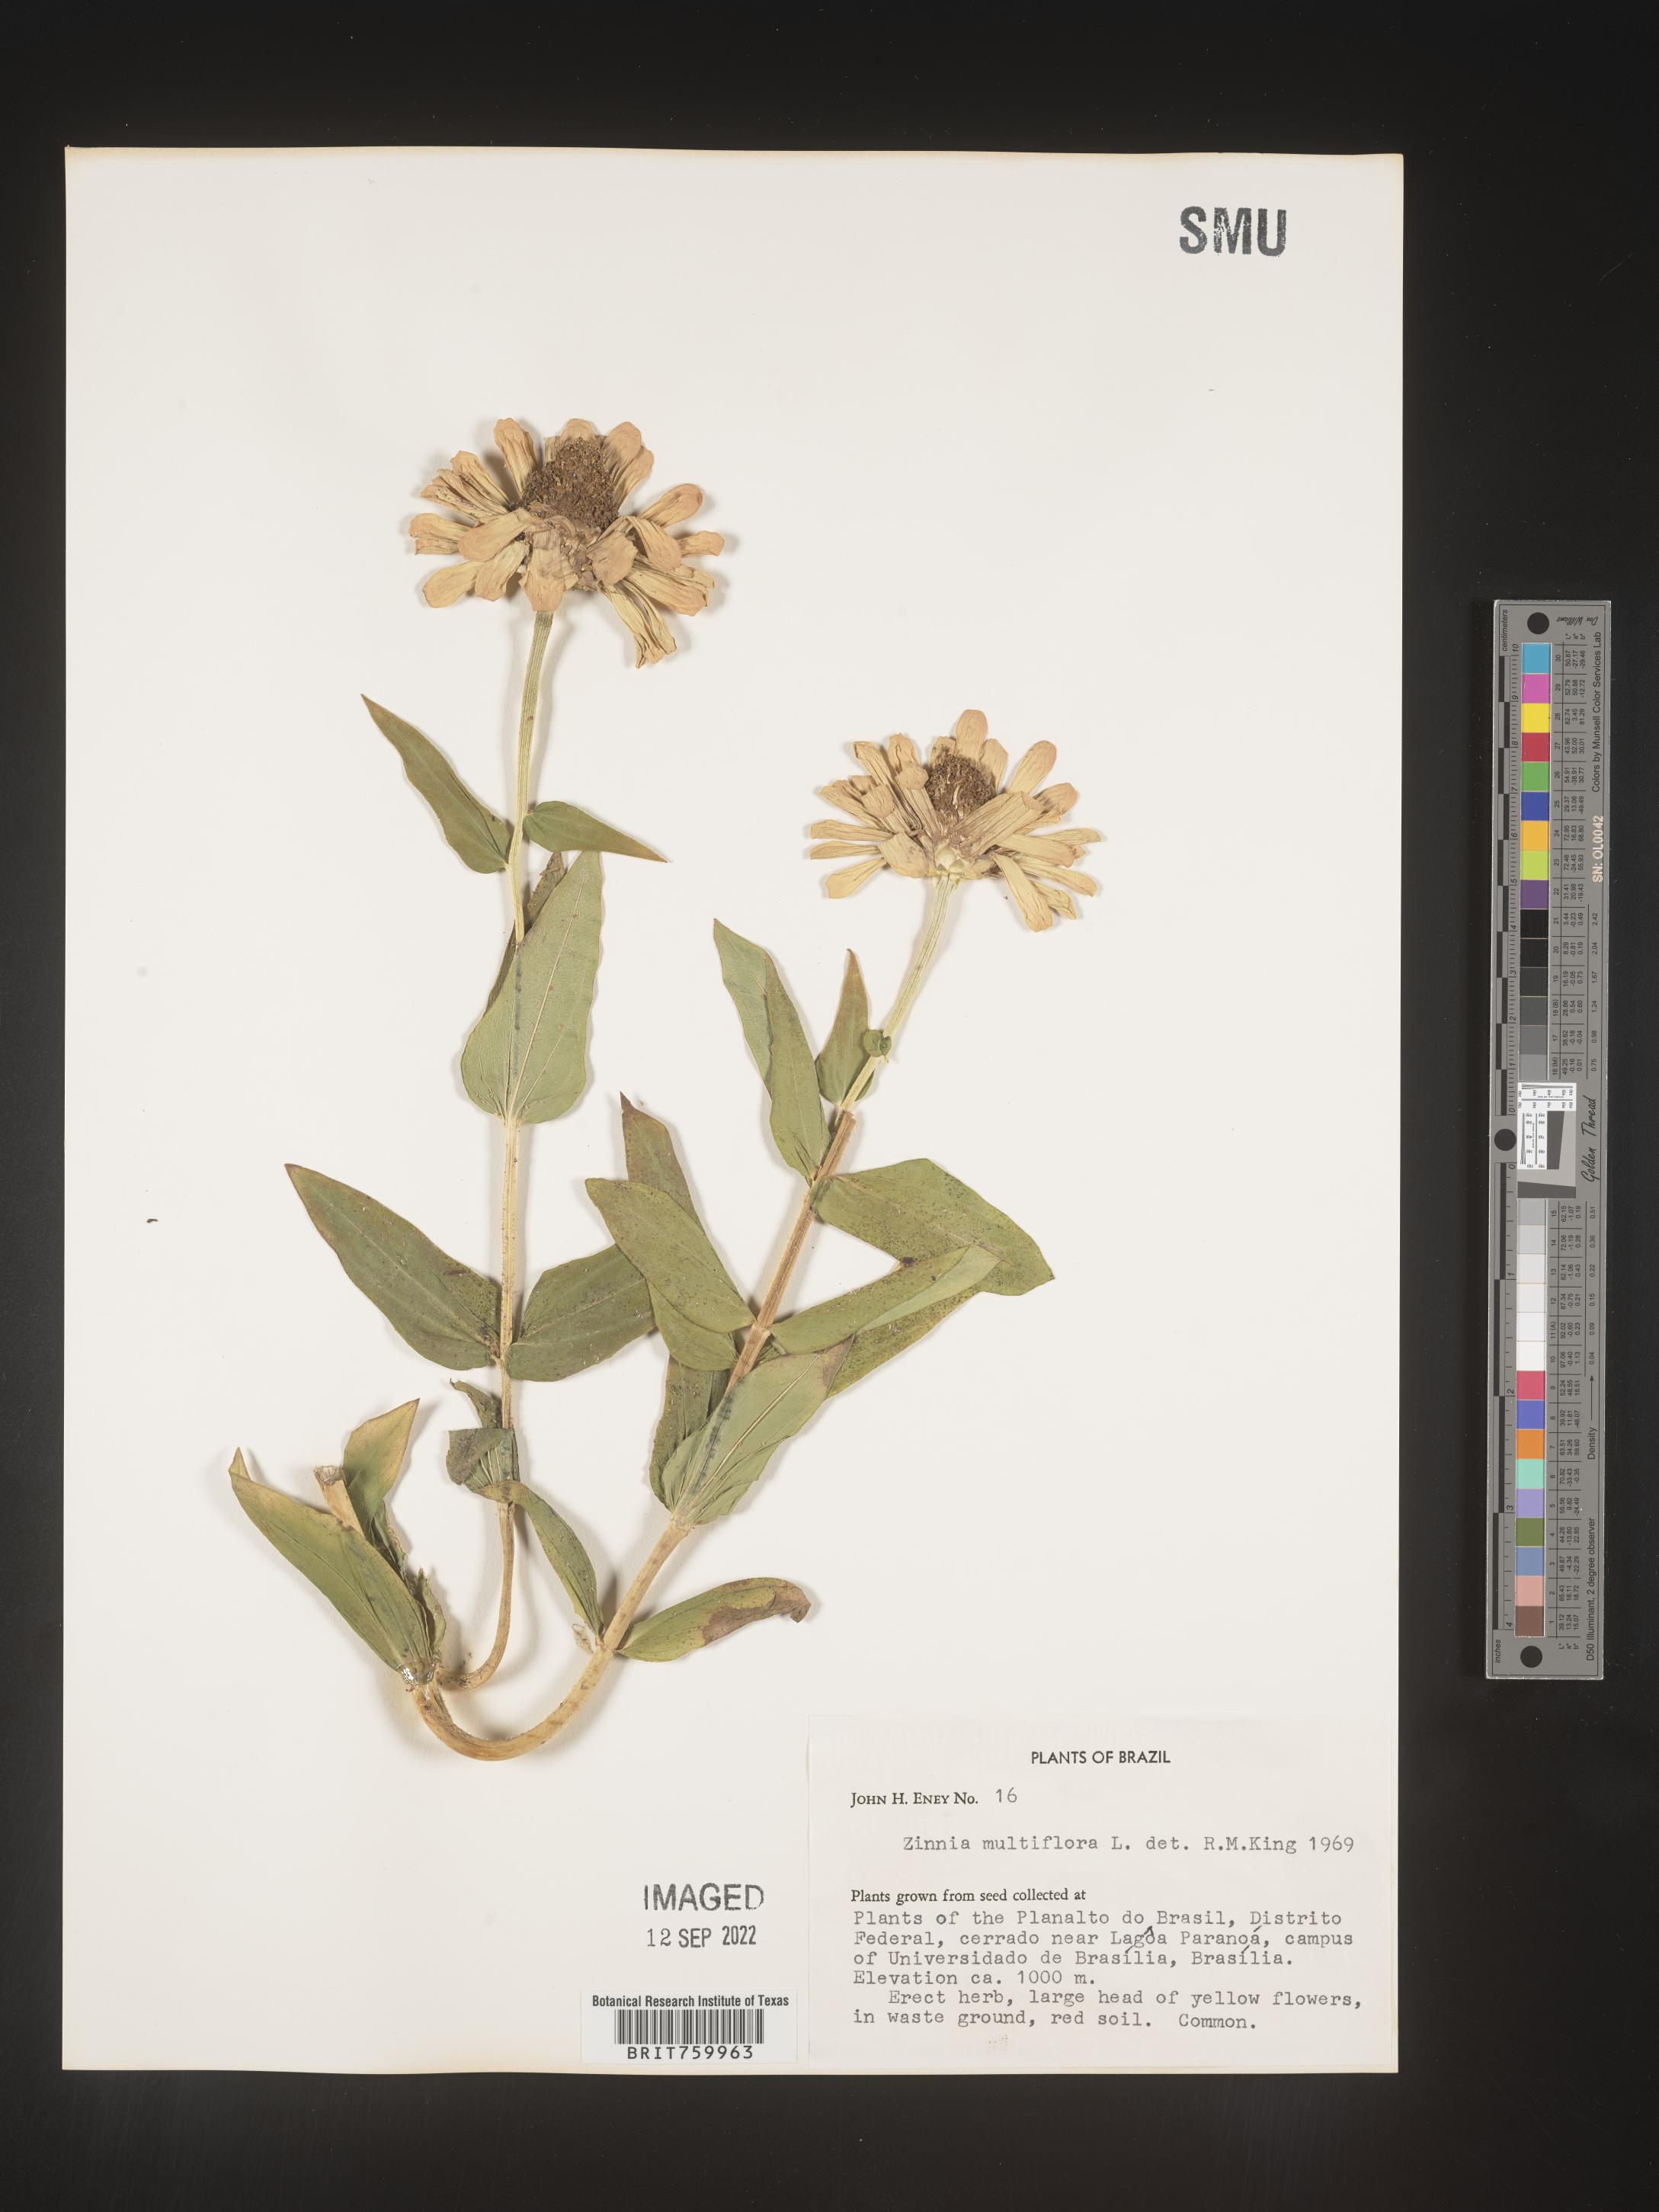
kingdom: Plantae
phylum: Tracheophyta
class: Magnoliopsida
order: Asterales
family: Asteraceae
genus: Zinnia
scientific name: Zinnia
